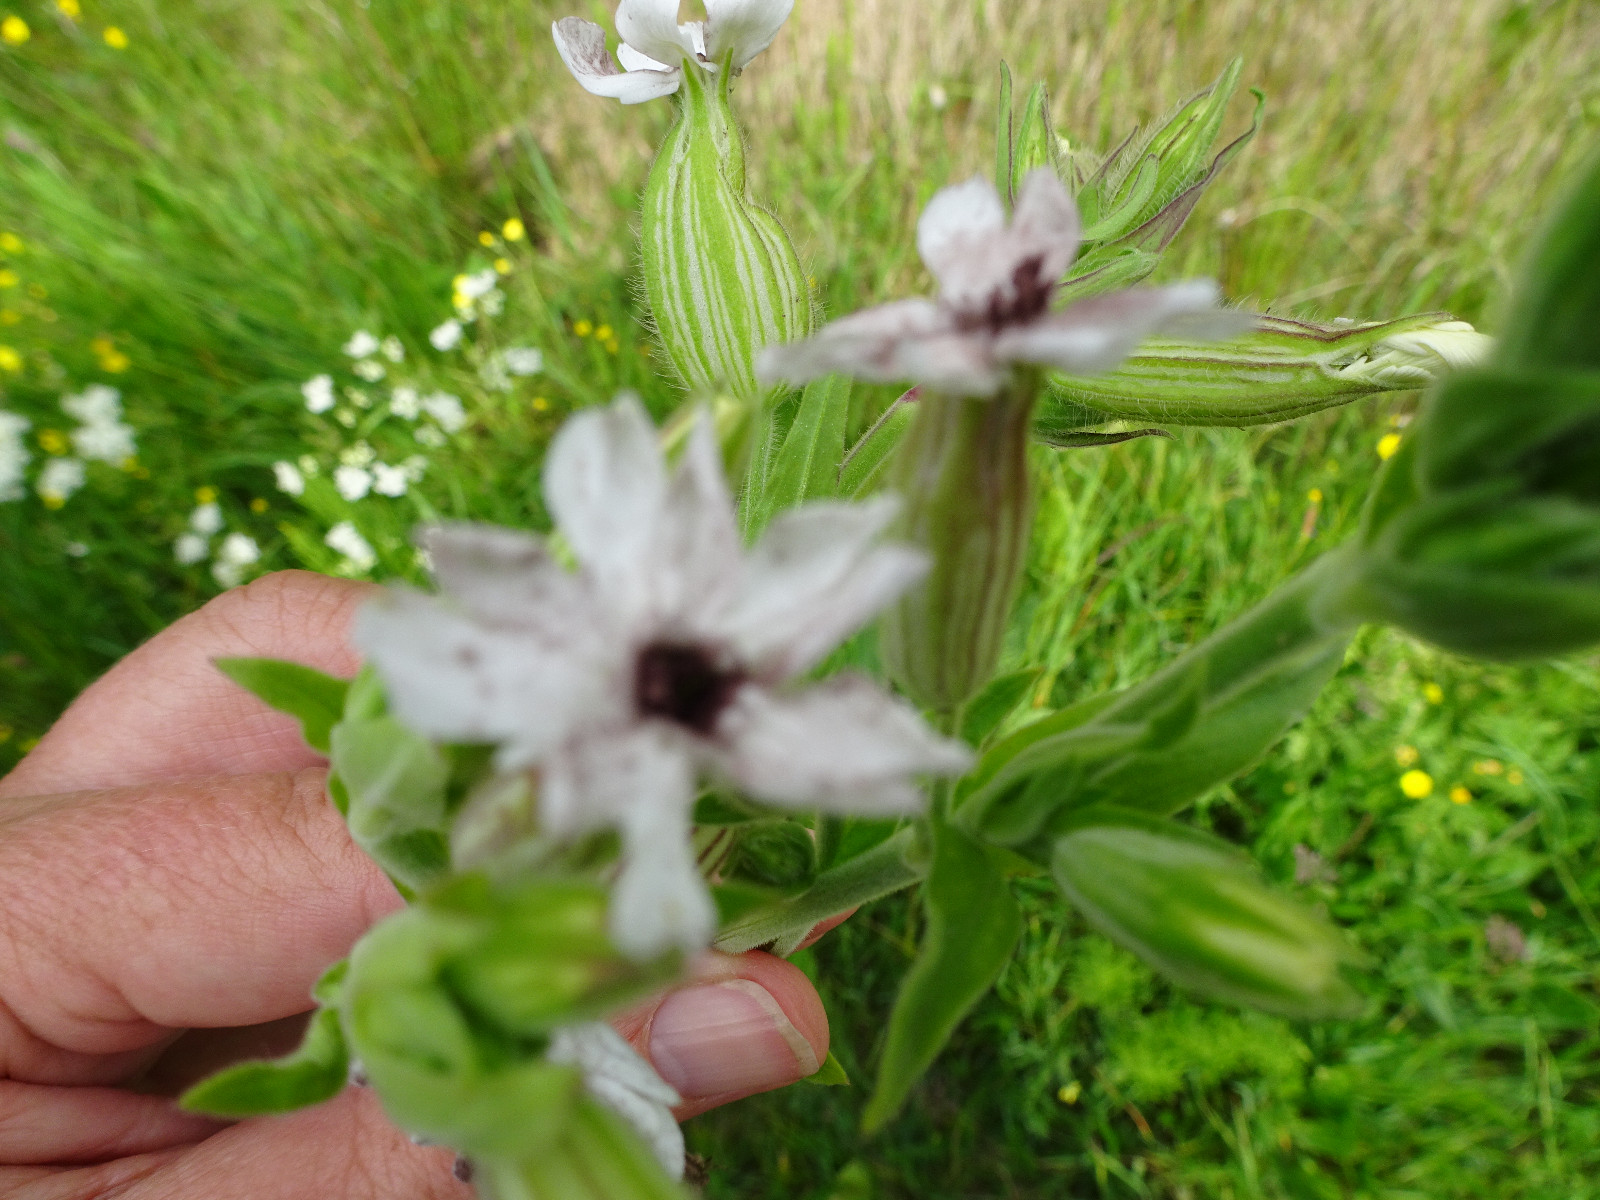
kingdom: Fungi
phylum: Basidiomycota
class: Microbotryomycetes
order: Microbotryales
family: Microbotryaceae
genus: Microbotryum
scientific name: Microbotryum lychnidis-dioicae
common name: Campion anther smut
